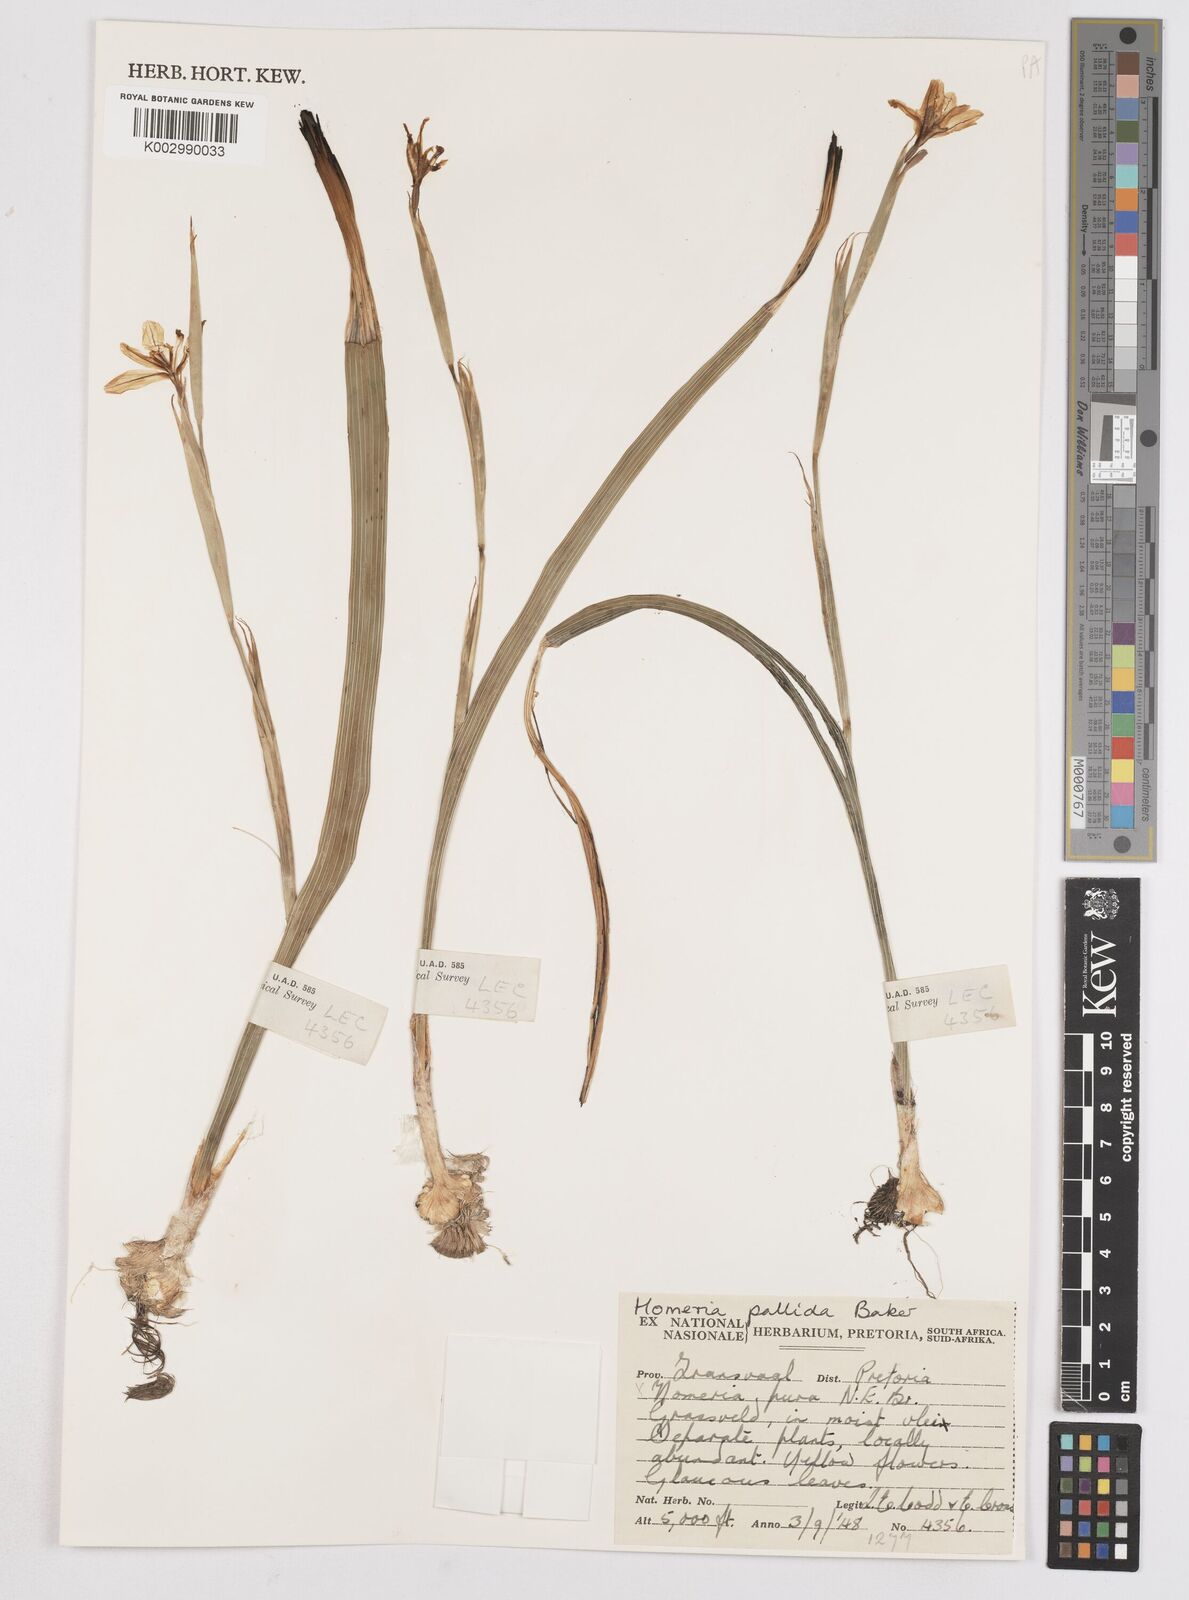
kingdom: Plantae
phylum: Tracheophyta
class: Liliopsida
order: Asparagales
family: Iridaceae
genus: Moraea
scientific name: Moraea pallida
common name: Yellow tulp
